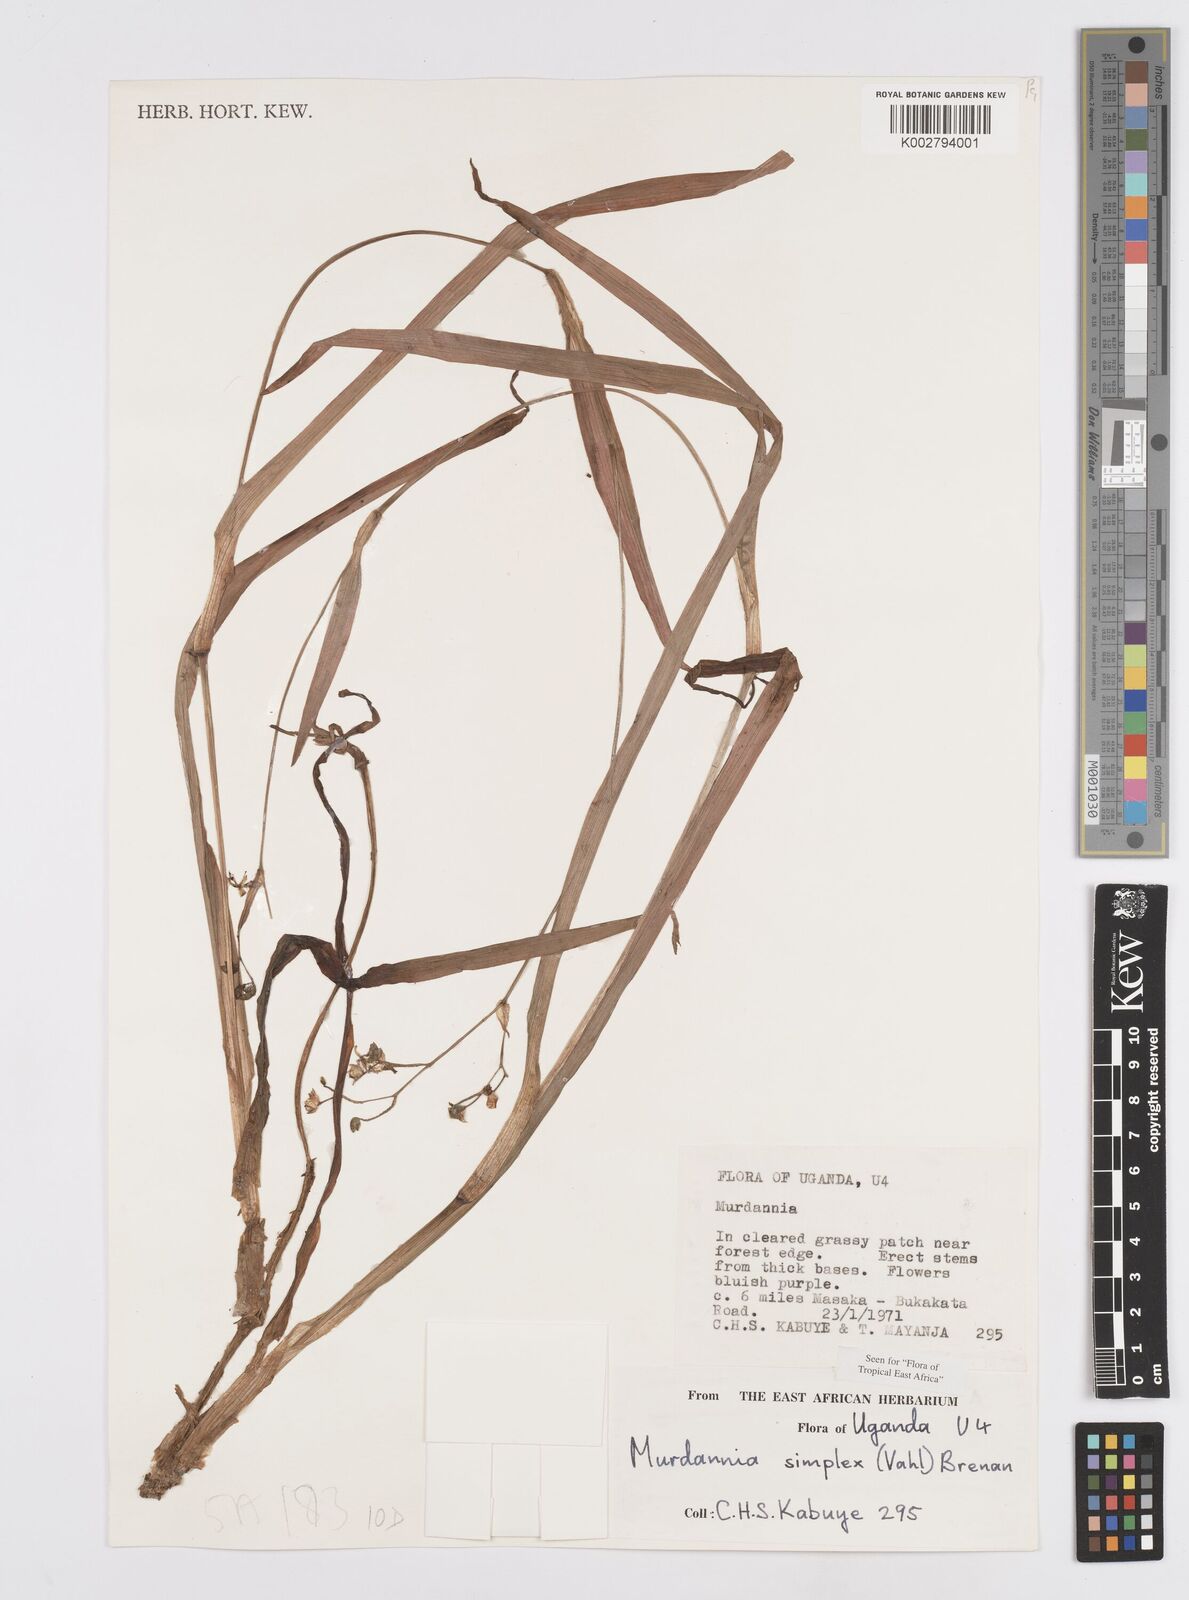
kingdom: Plantae
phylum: Tracheophyta
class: Liliopsida
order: Commelinales
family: Commelinaceae
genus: Murdannia
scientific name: Murdannia simplex
